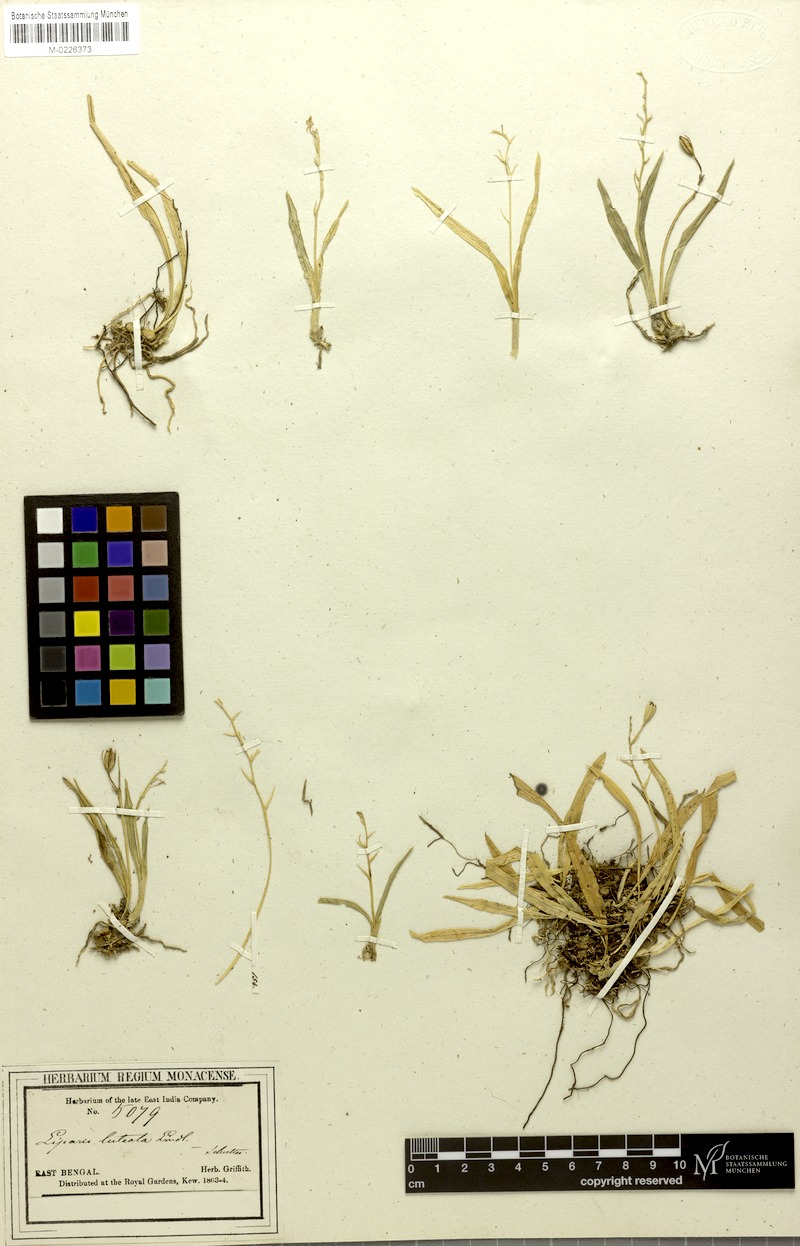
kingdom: Plantae
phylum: Tracheophyta
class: Liliopsida
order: Asparagales
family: Orchidaceae
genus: Liparis
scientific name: Liparis luteola
